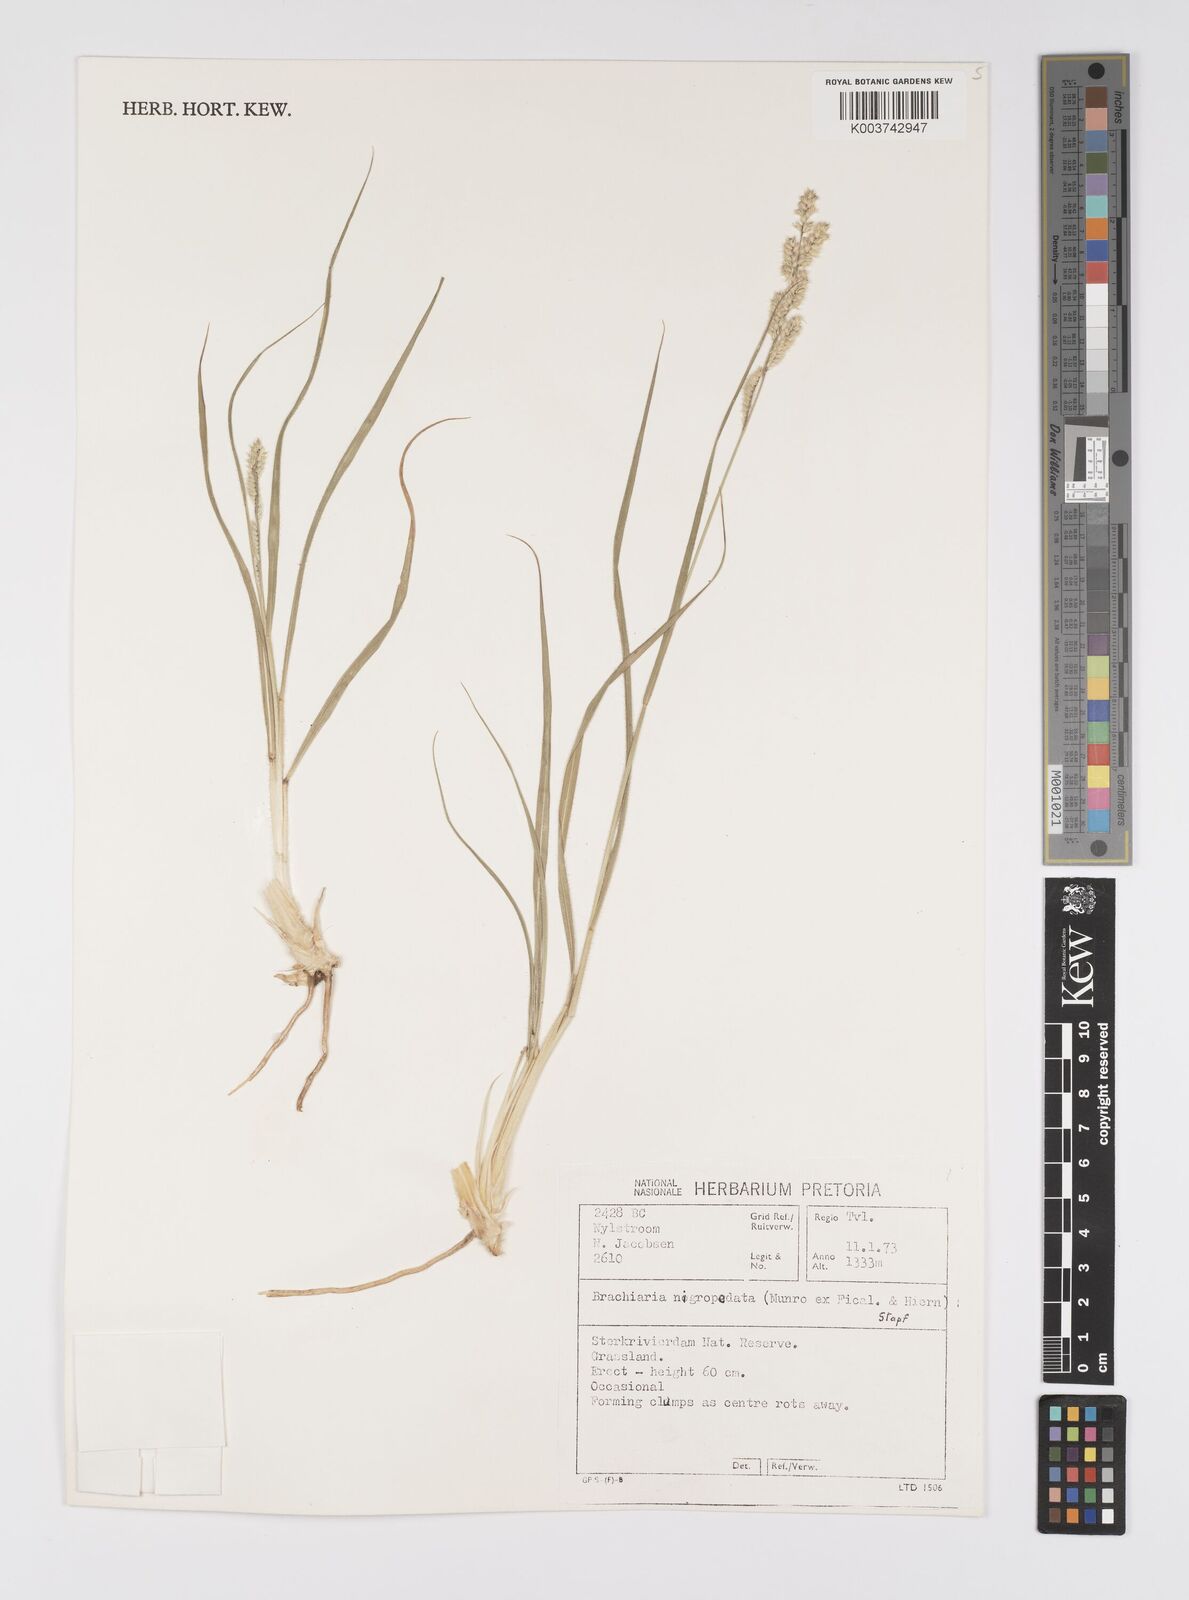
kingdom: Plantae
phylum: Tracheophyta
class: Liliopsida
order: Poales
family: Poaceae
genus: Urochloa
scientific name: Urochloa nigropedata
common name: Spotted signal grass
